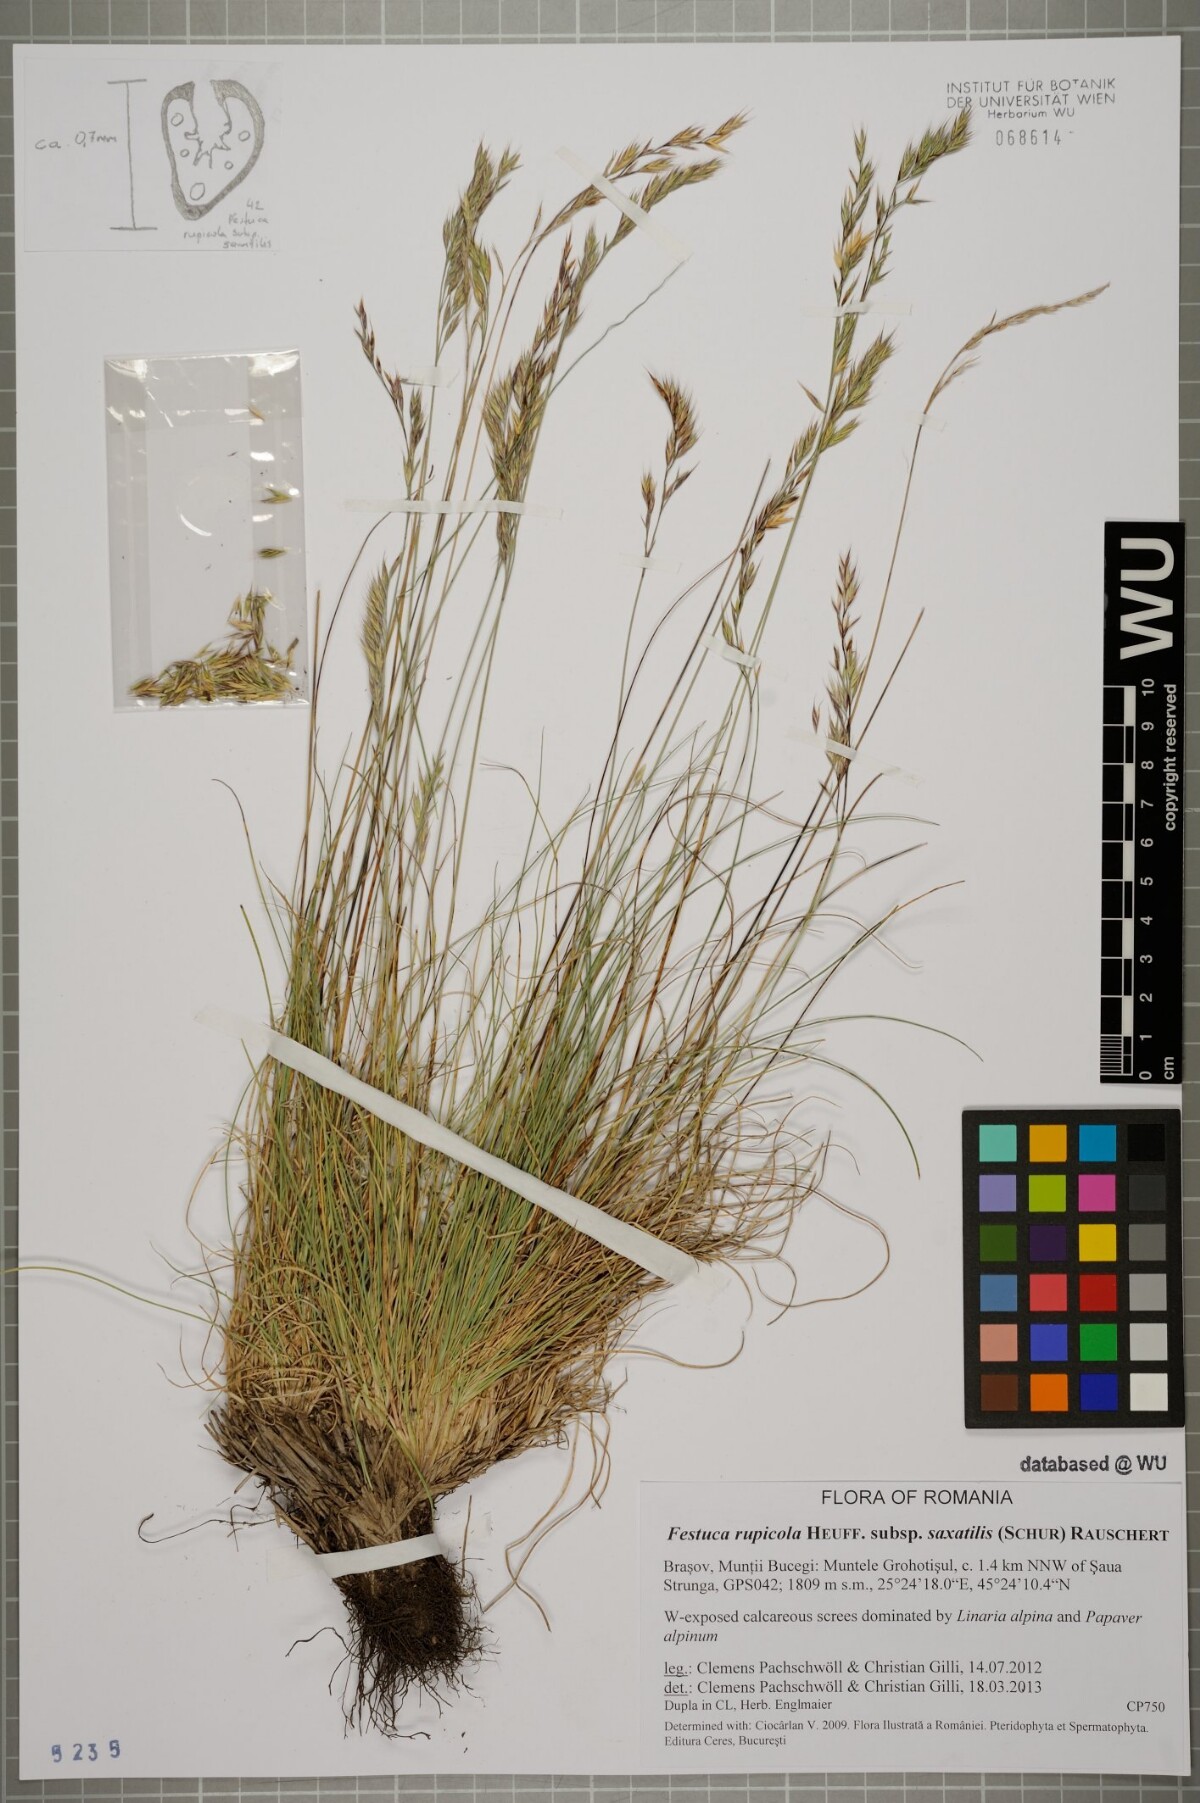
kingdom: Plantae
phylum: Tracheophyta
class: Liliopsida
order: Poales
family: Poaceae
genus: Festuca
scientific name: Festuca saxatilis
